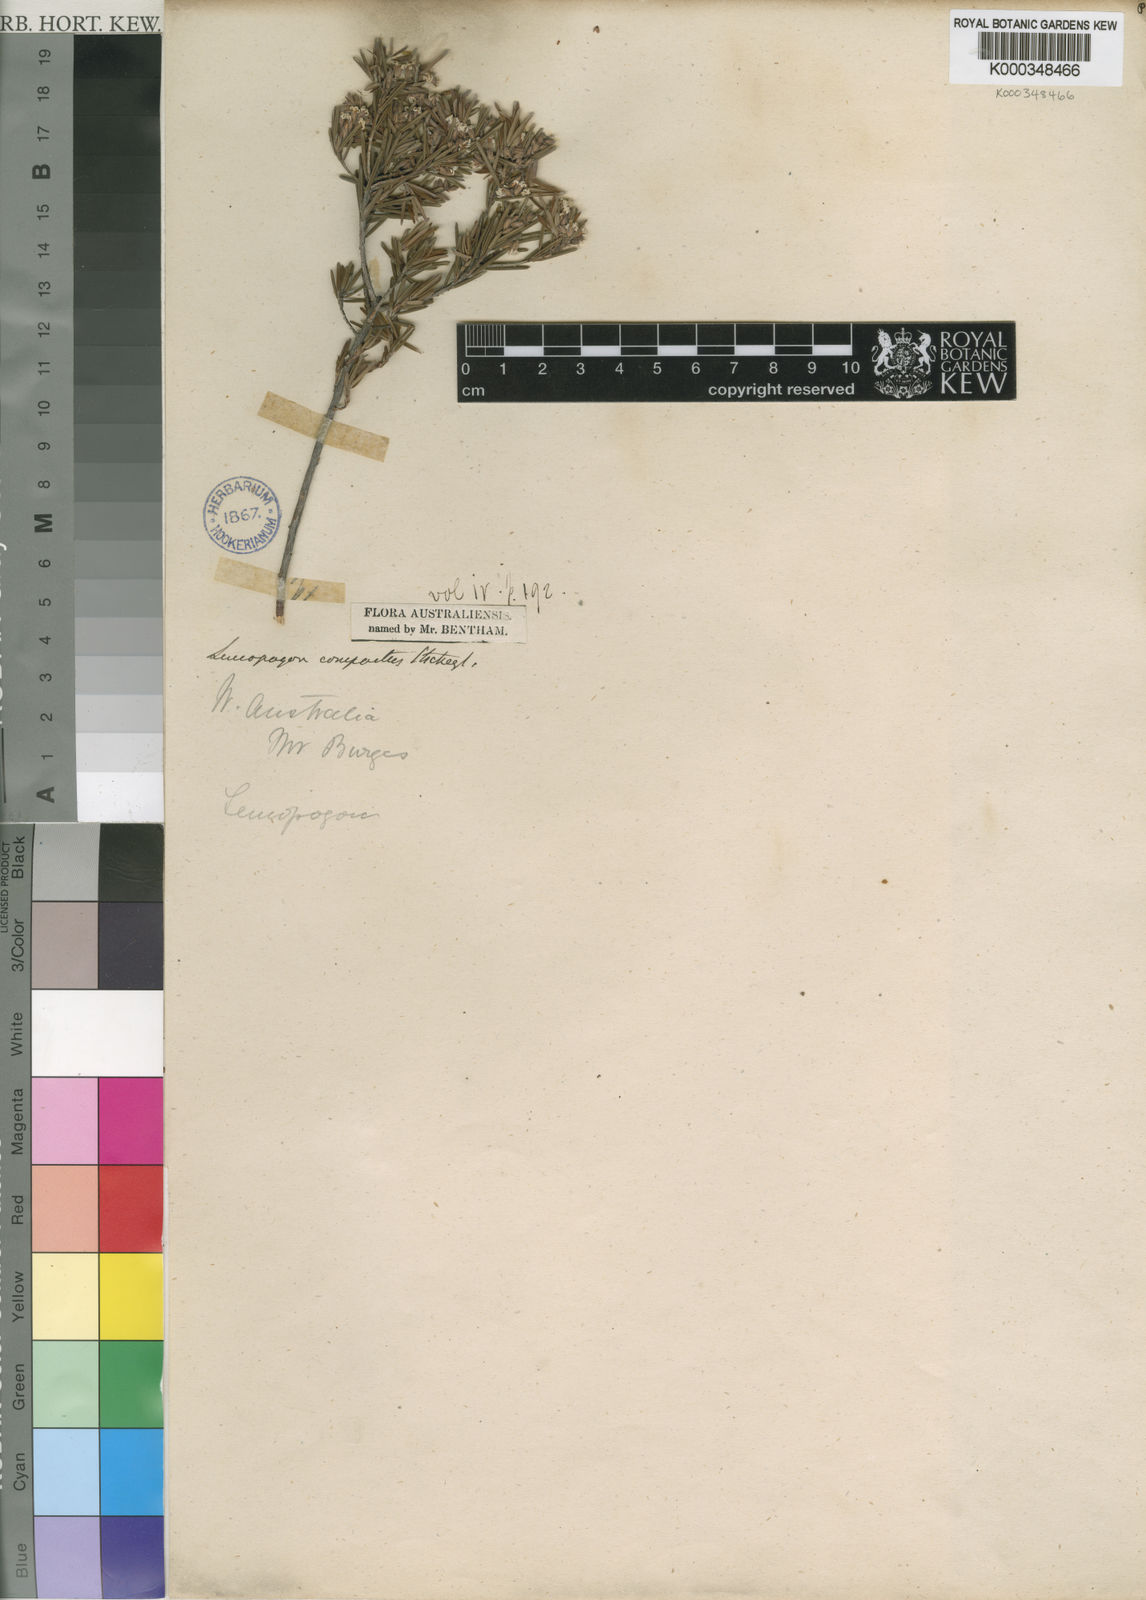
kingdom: Plantae
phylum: Tracheophyta
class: Magnoliopsida
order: Ericales
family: Ericaceae
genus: Leucopogon
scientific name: Leucopogon compactus
